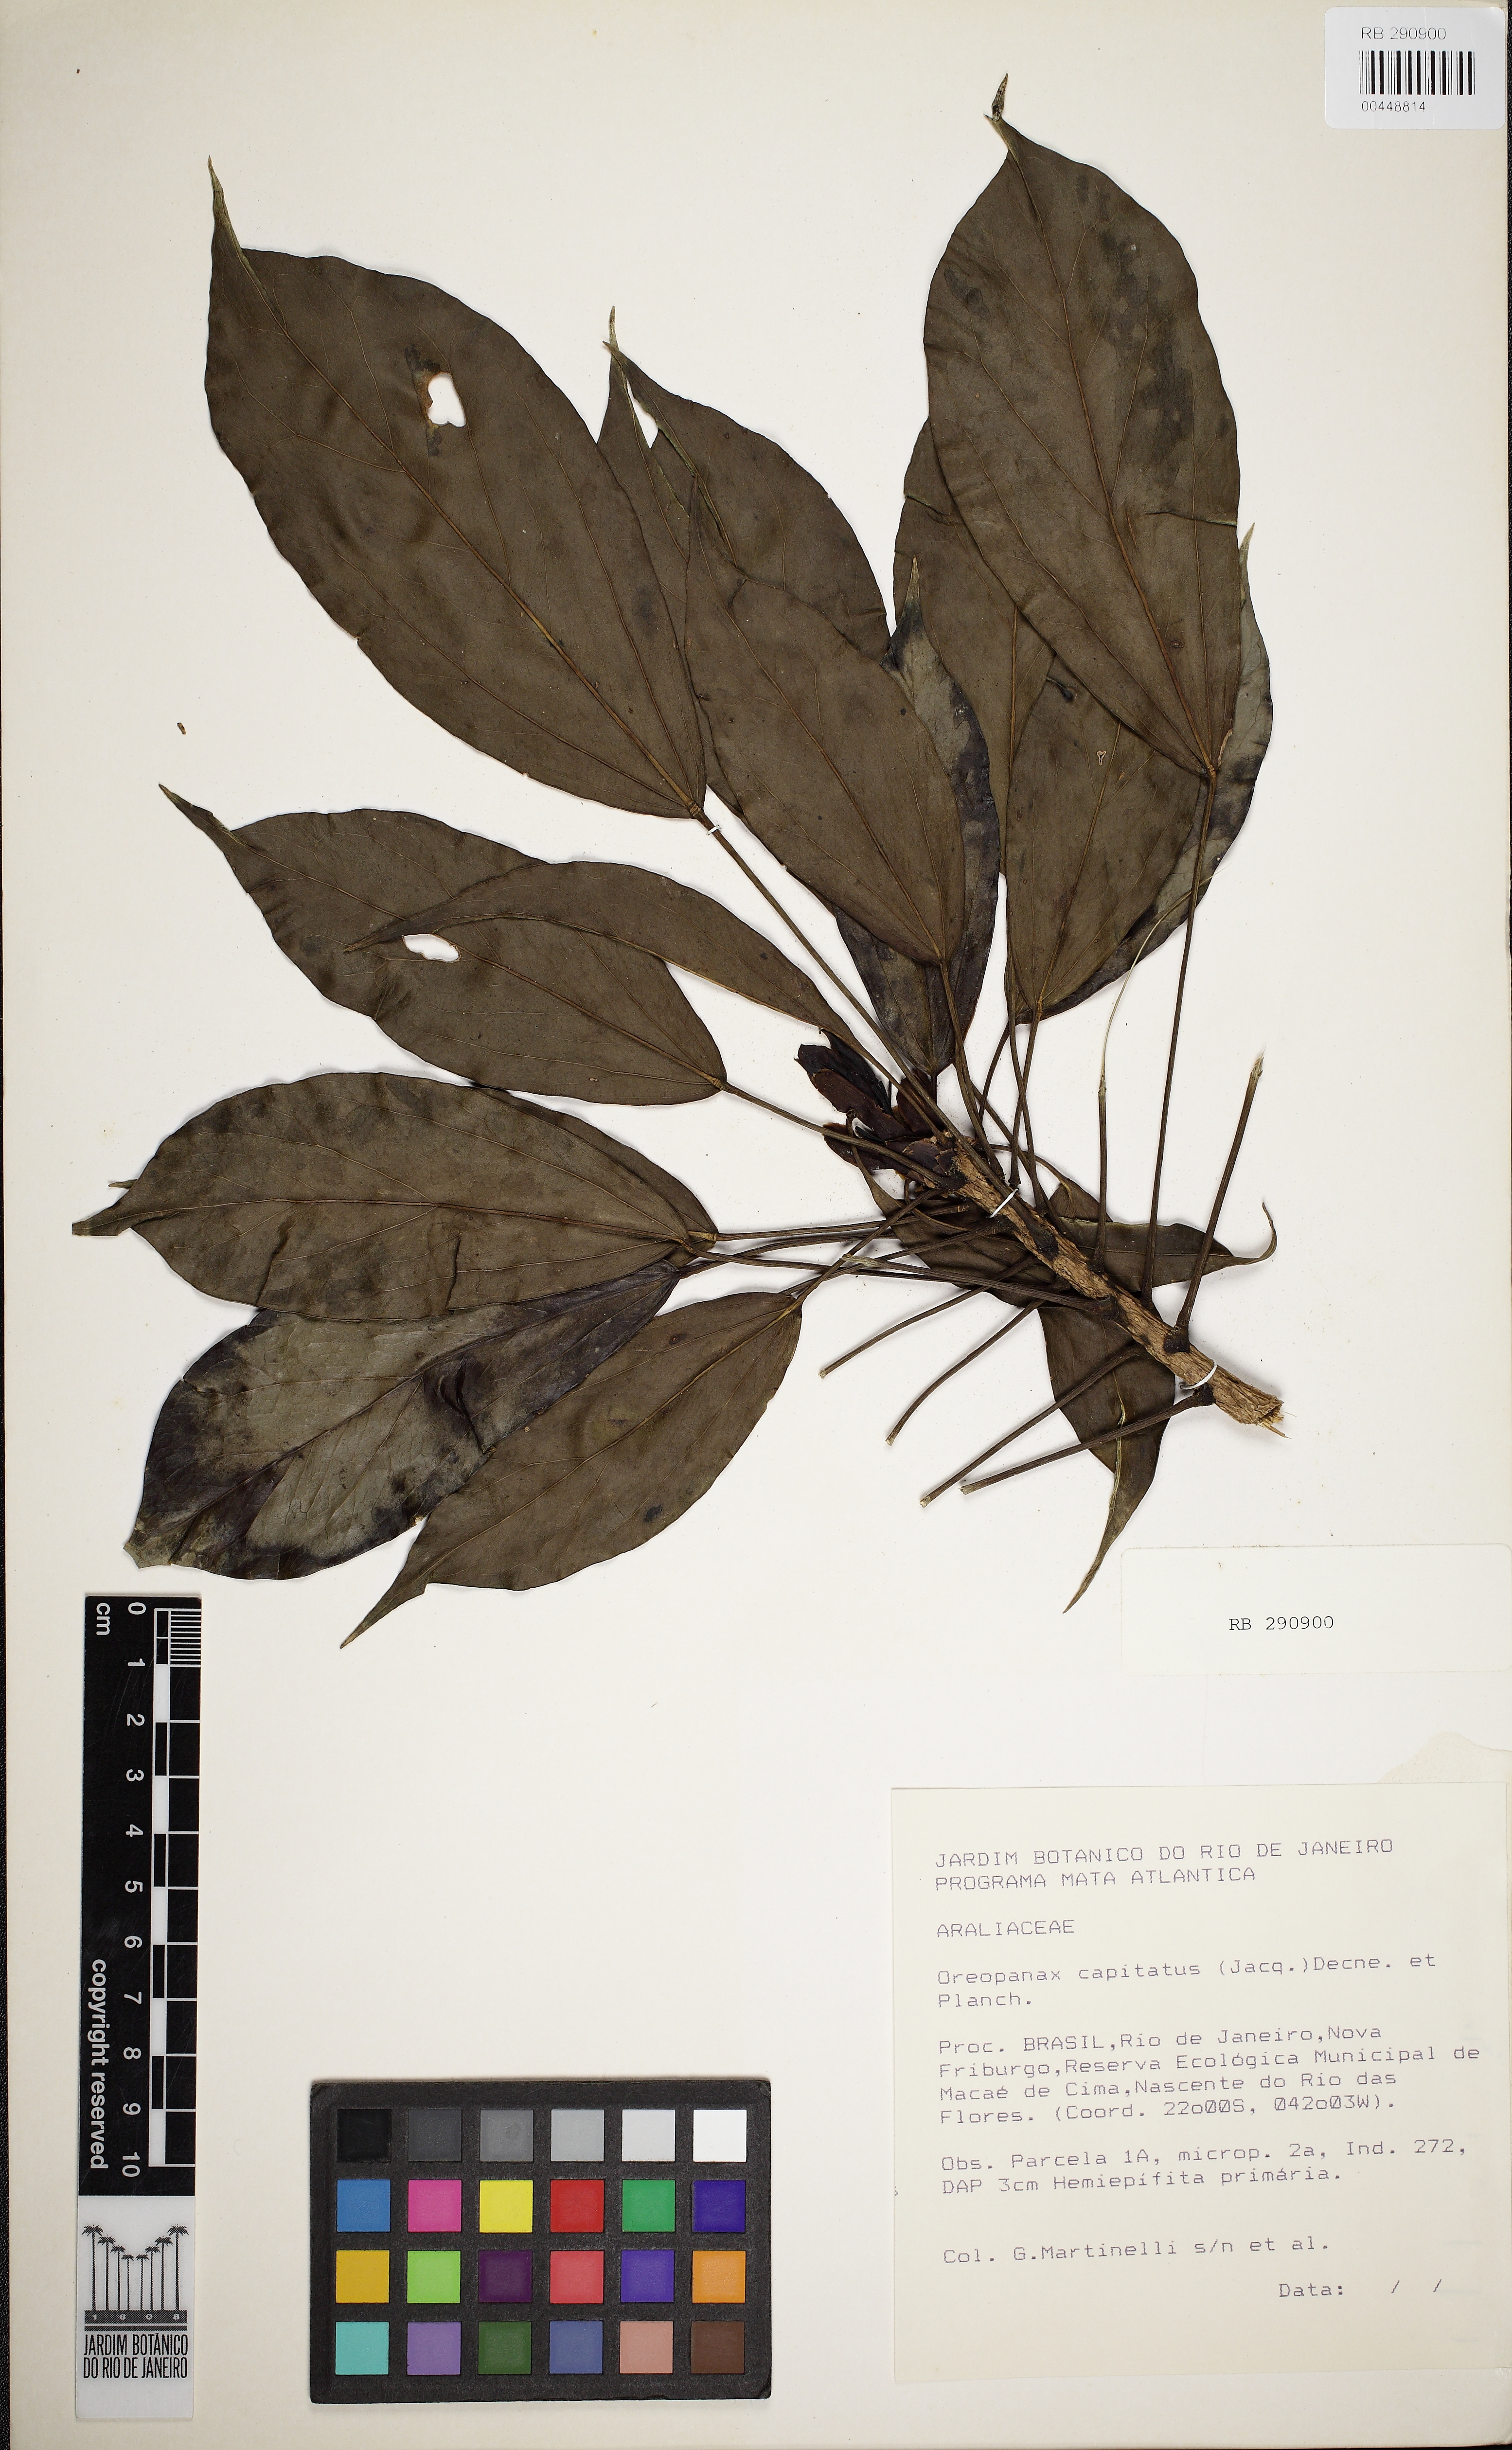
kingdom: Plantae
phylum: Tracheophyta
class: Magnoliopsida
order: Apiales
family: Araliaceae
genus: Oreopanax
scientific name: Oreopanax capitatus
